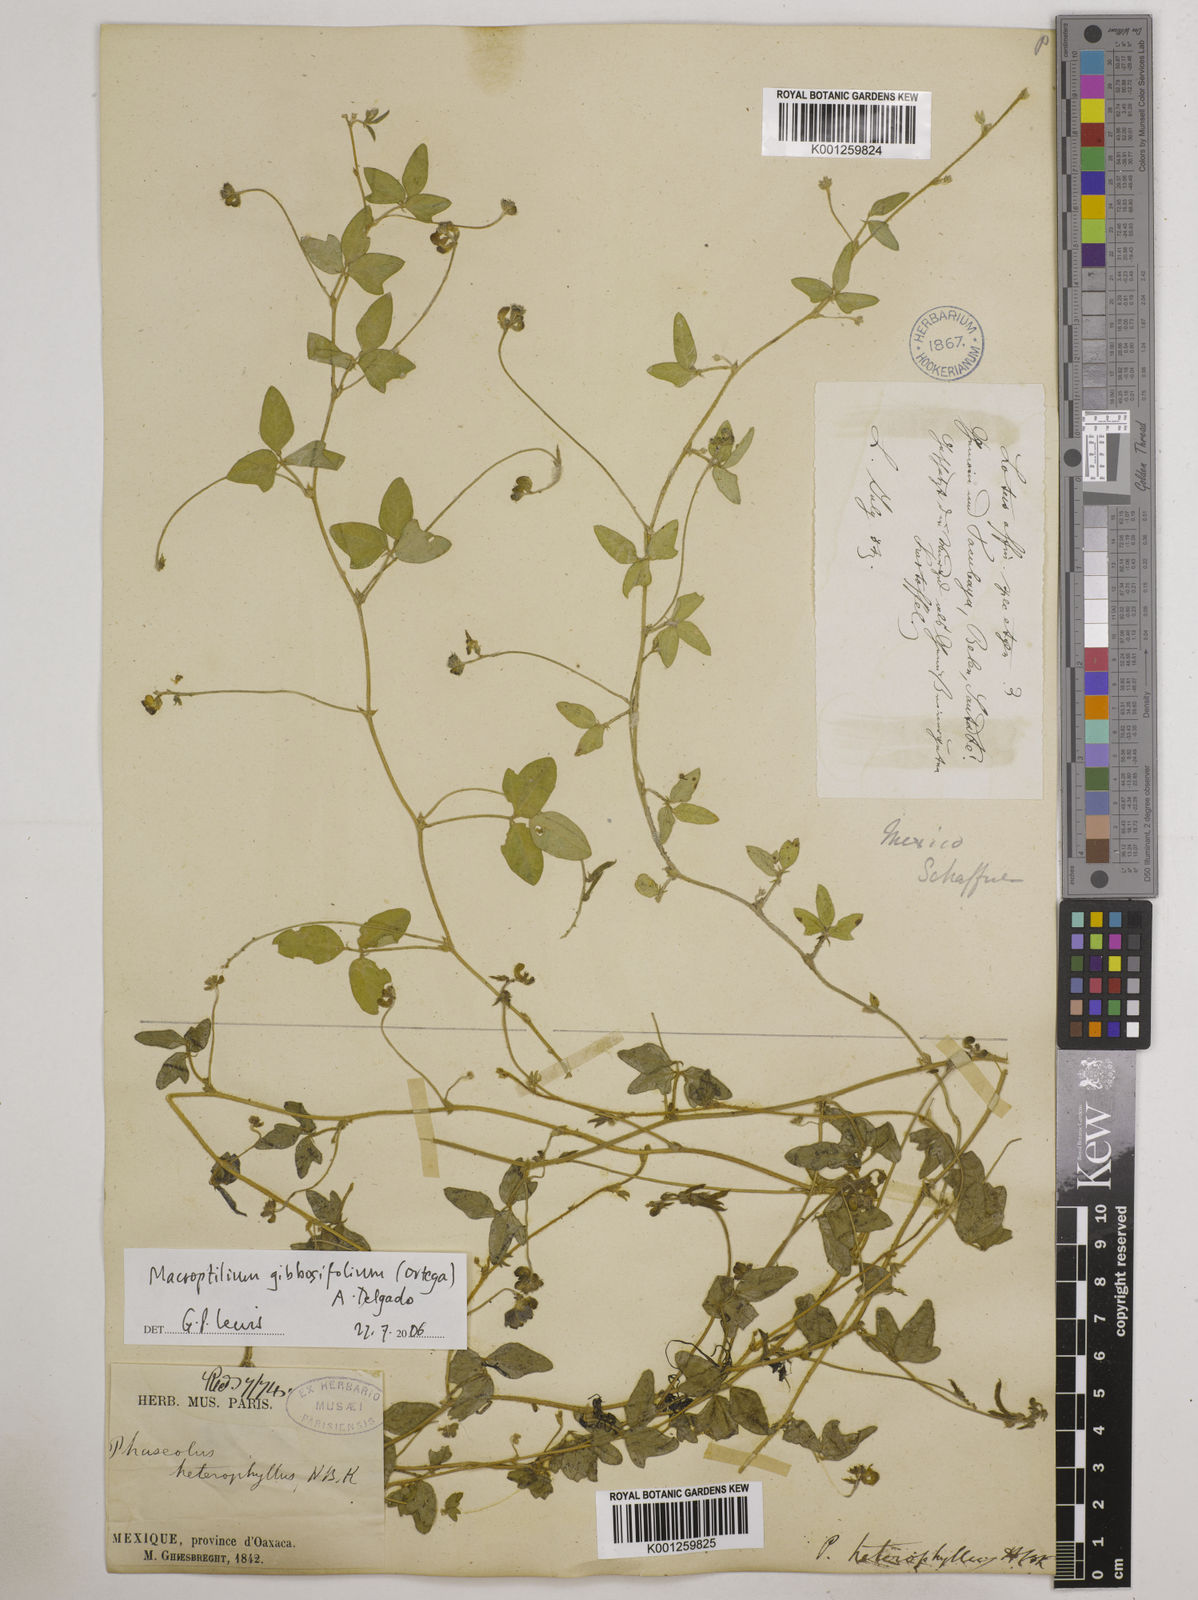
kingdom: Plantae
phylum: Tracheophyta
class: Magnoliopsida
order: Fabales
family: Fabaceae
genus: Macroptilium
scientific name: Macroptilium gibbosifolium
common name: Variableleaf bushbean
